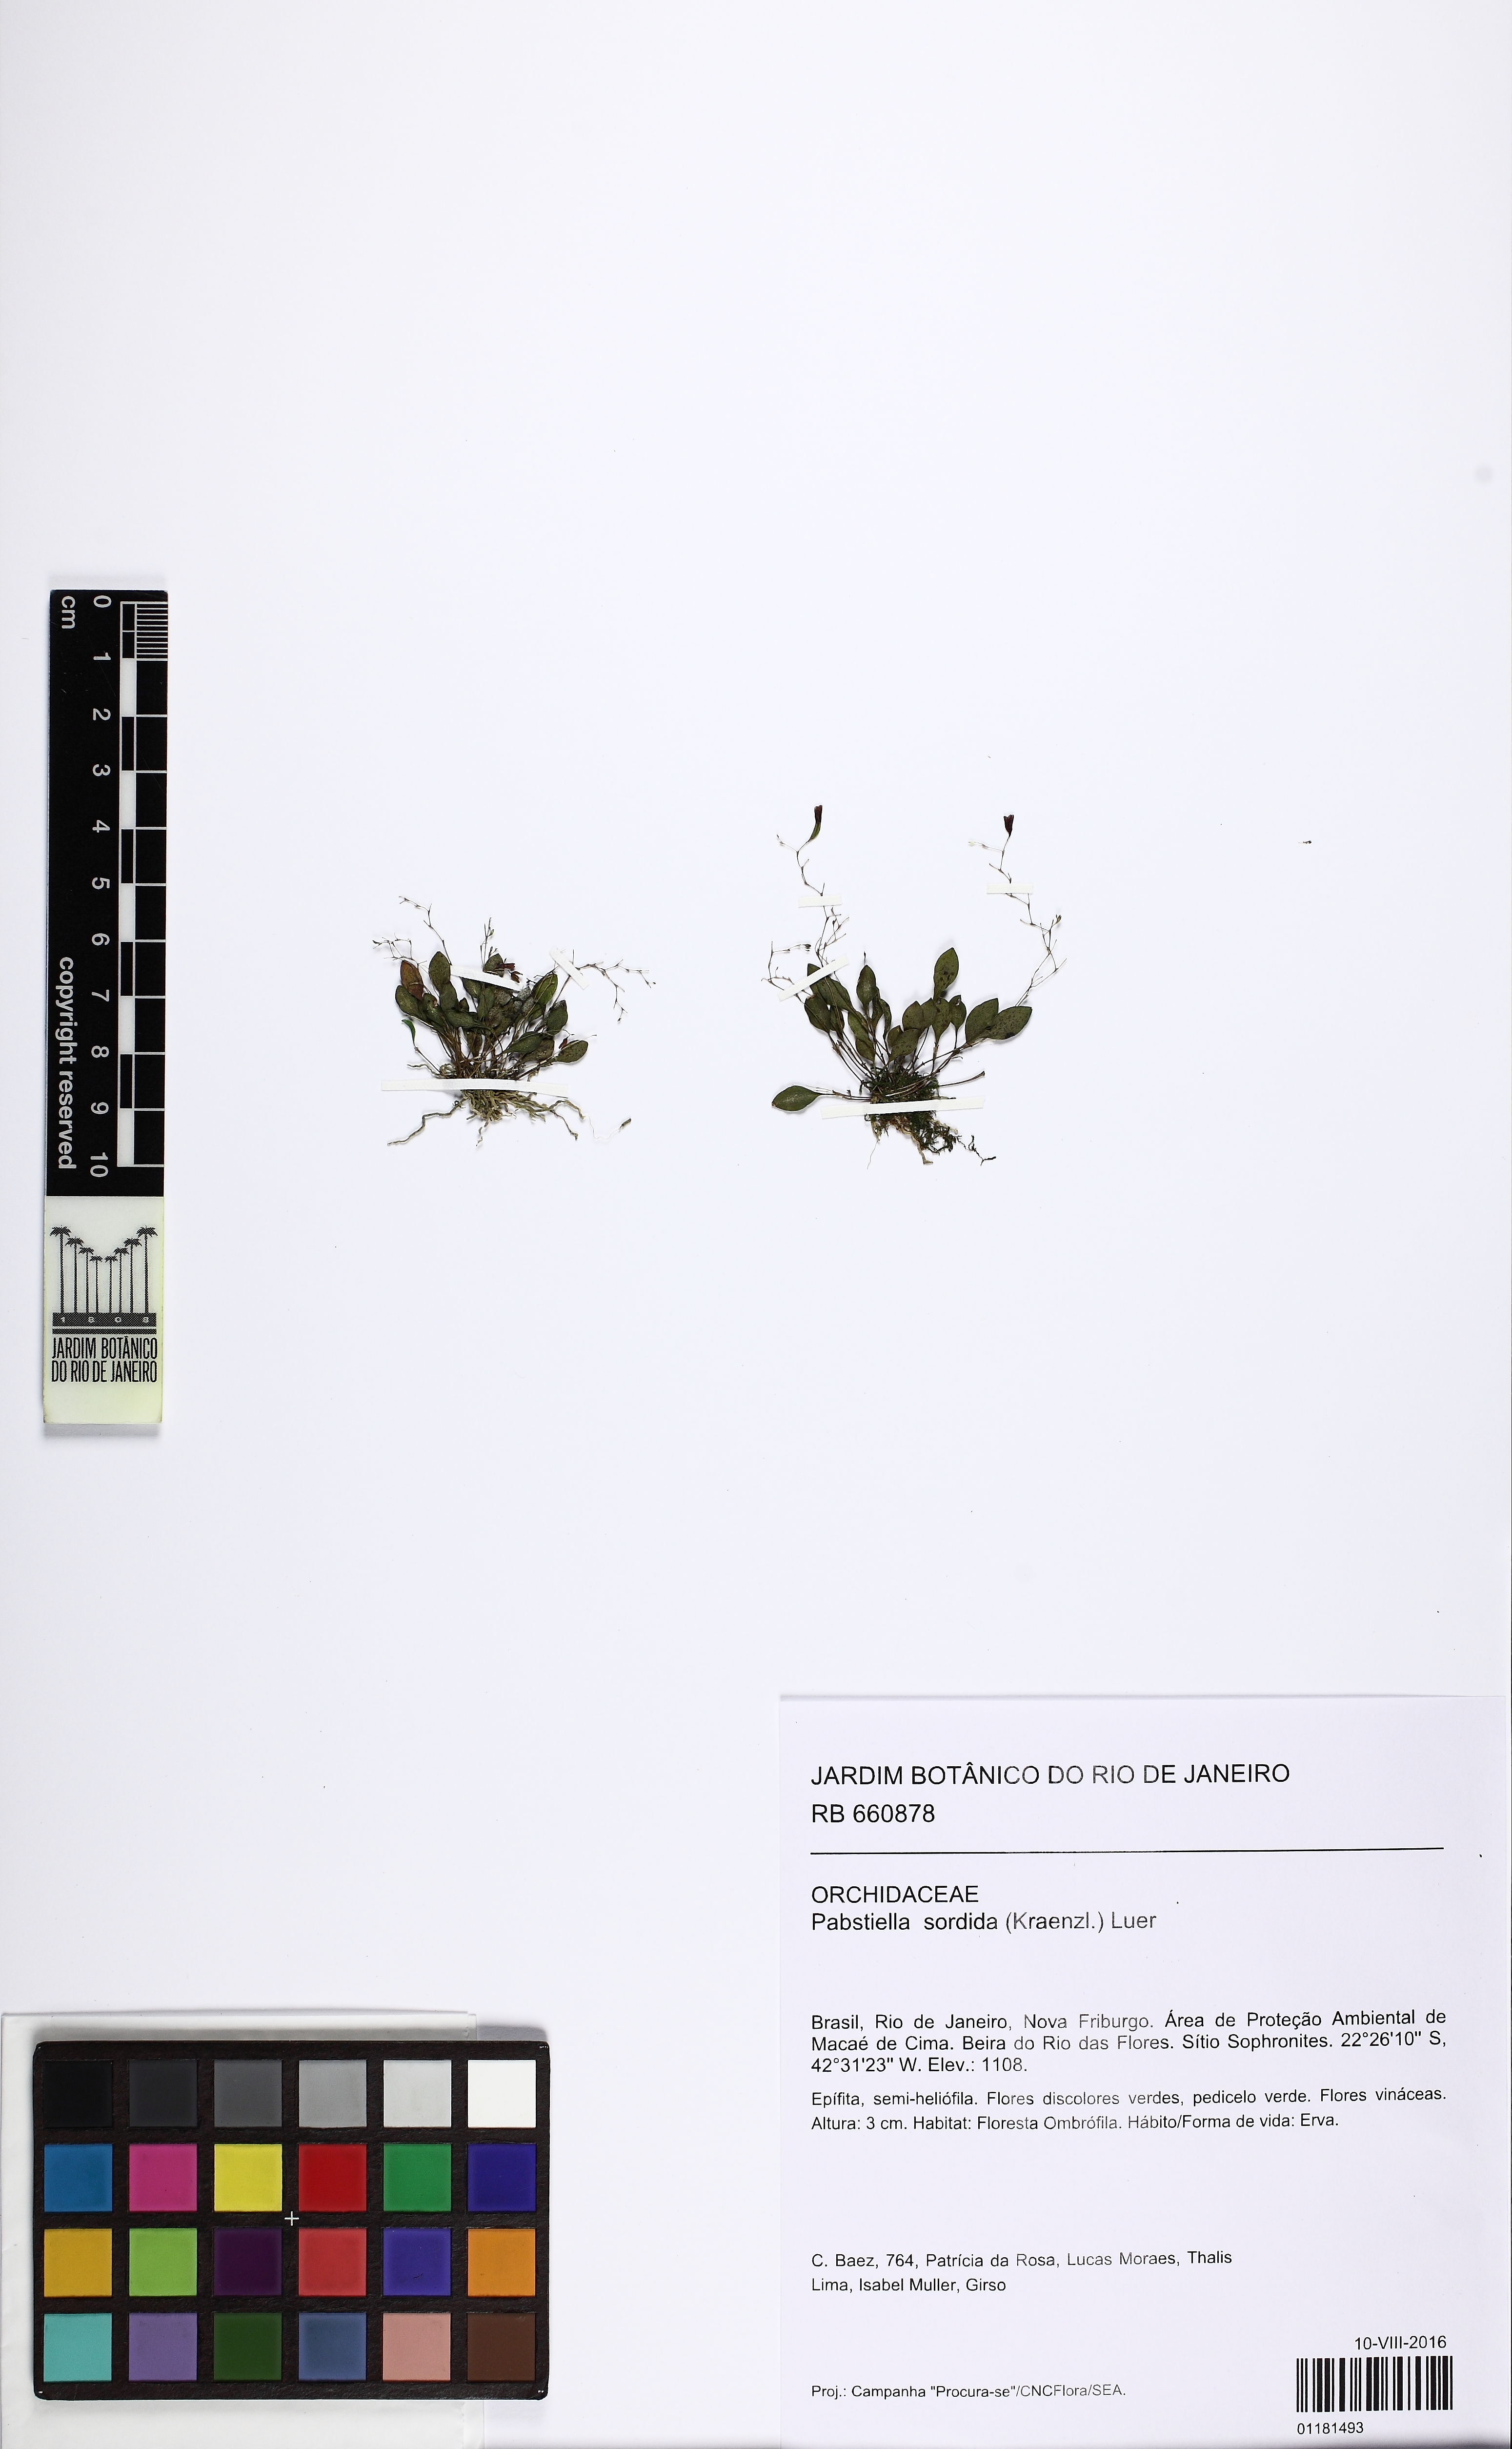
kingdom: Plantae
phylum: Tracheophyta
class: Liliopsida
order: Asparagales
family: Orchidaceae
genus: Pabstiella
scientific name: Pabstiella sordida
